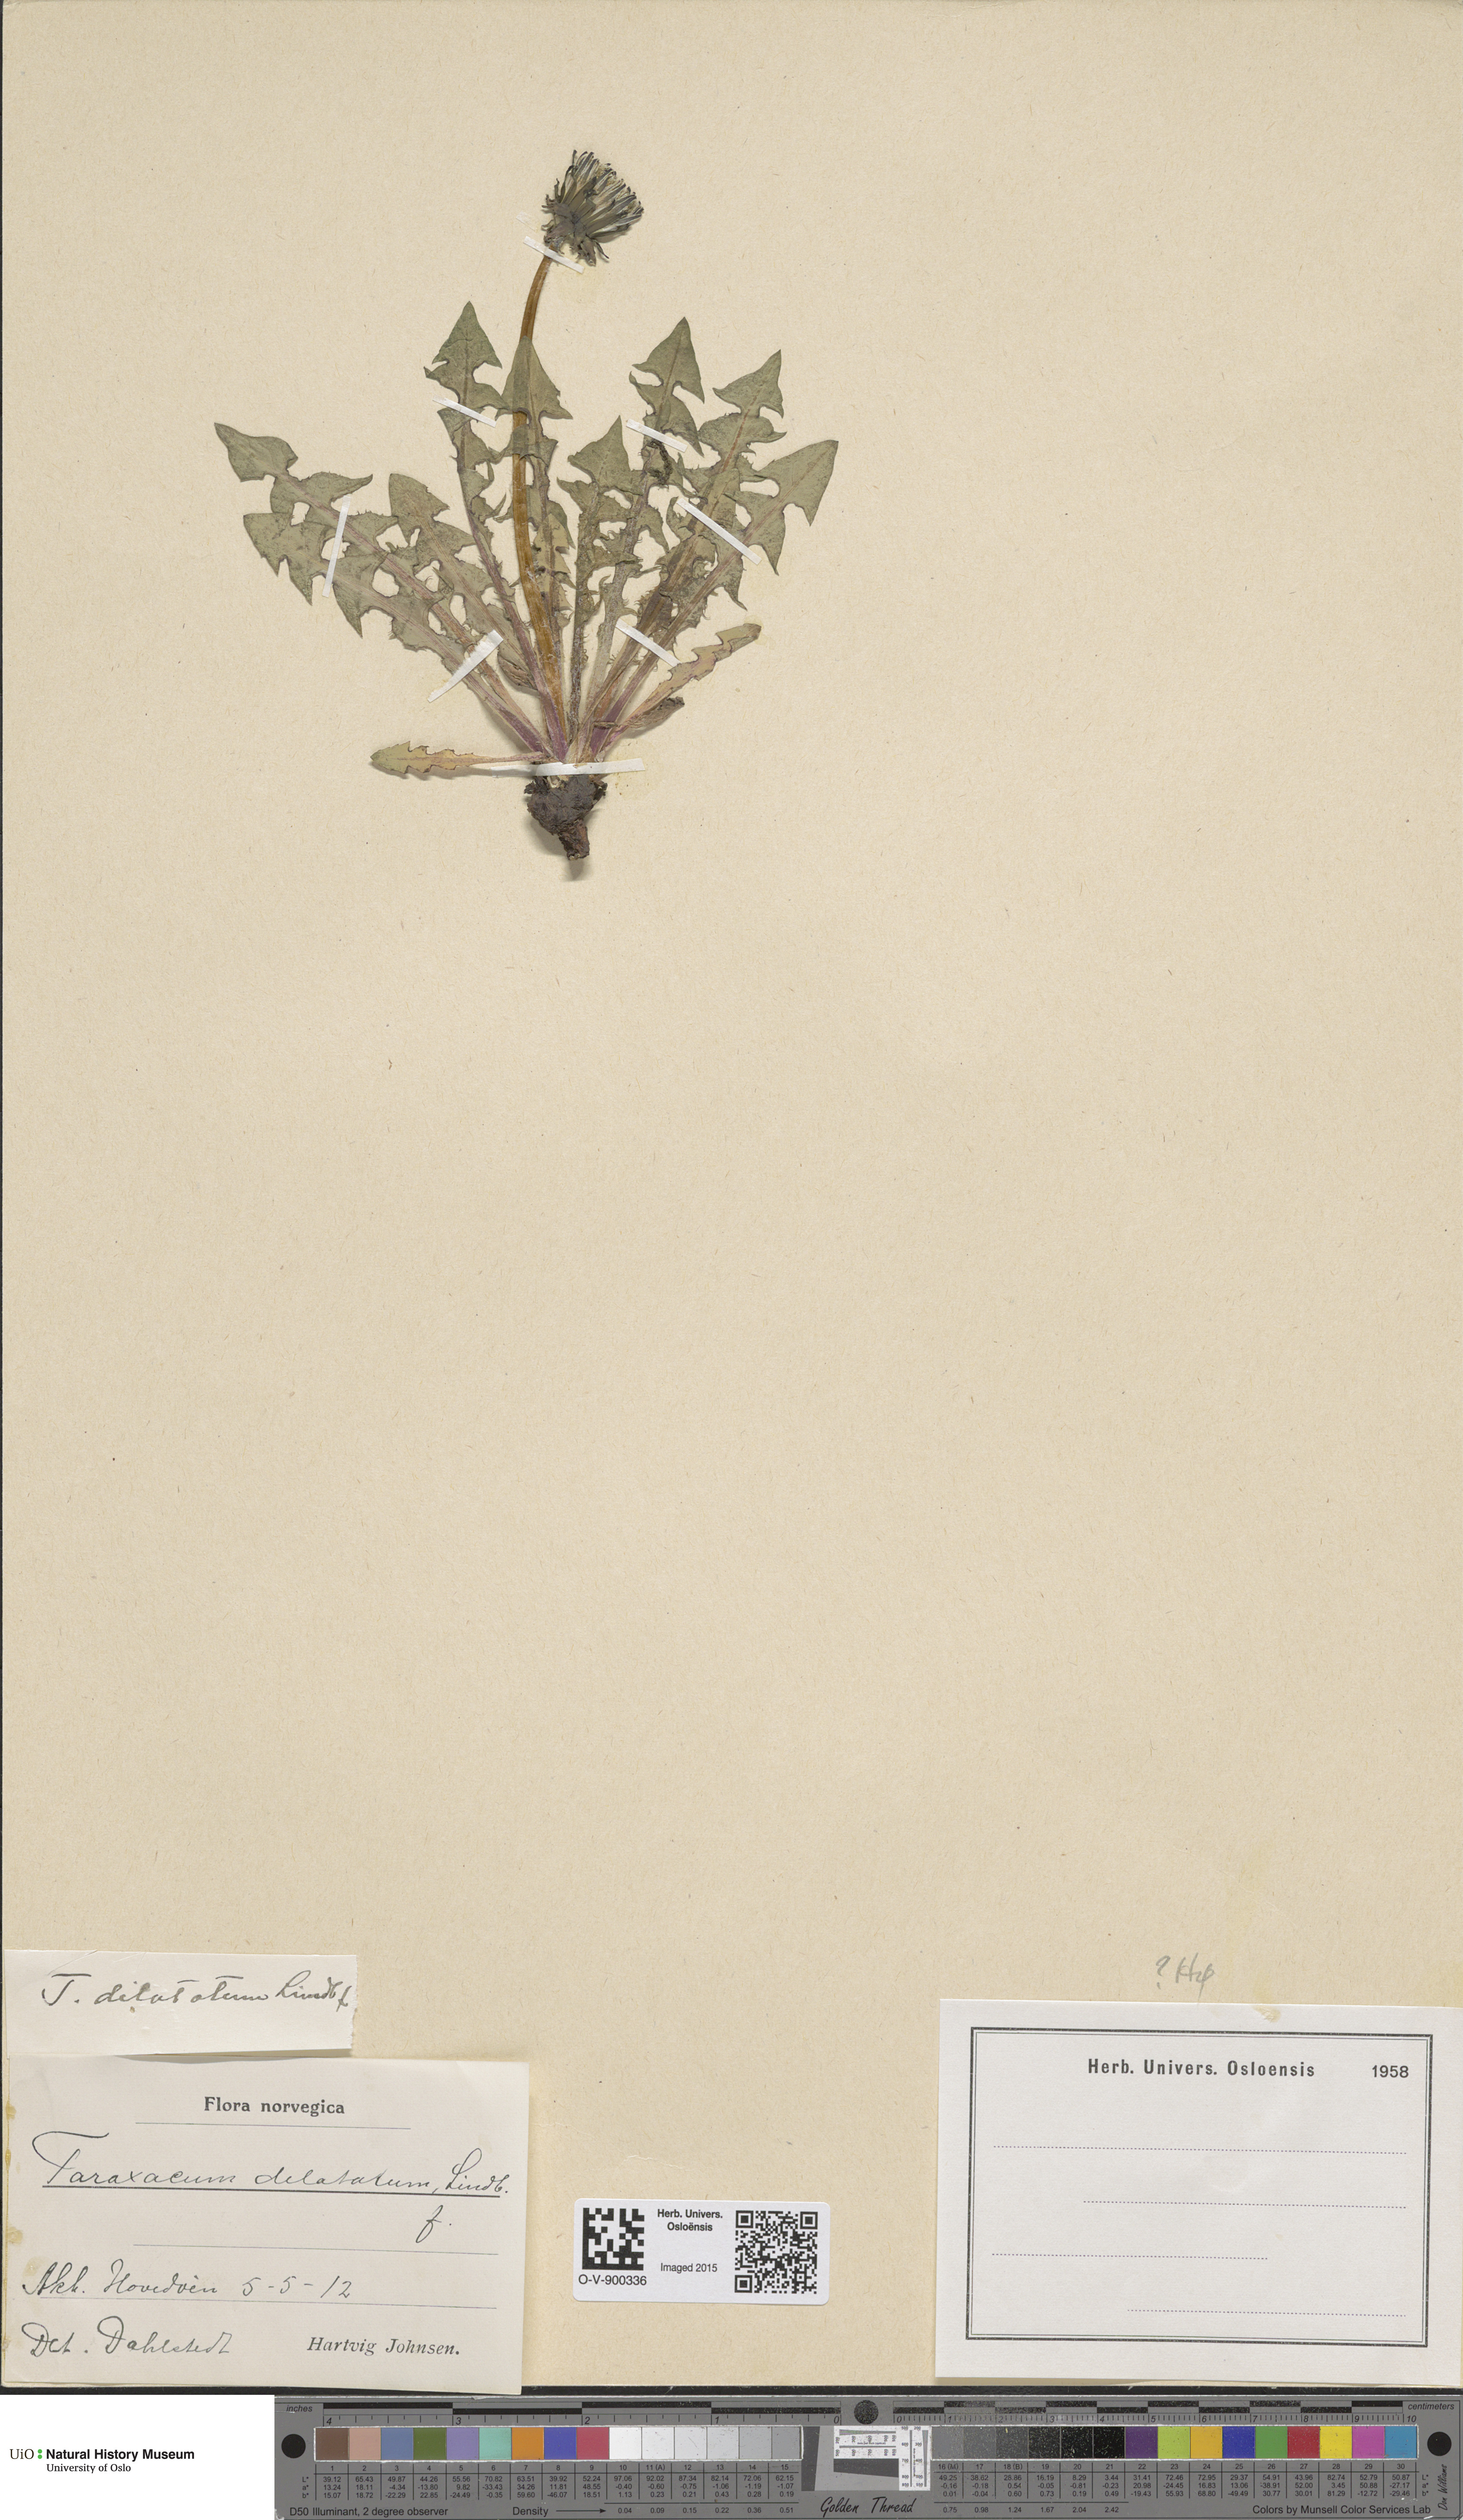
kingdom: Plantae
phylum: Tracheophyta
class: Magnoliopsida
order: Asterales
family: Asteraceae
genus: Taraxacum
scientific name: Taraxacum dilatatum
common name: Grassland dandelion
